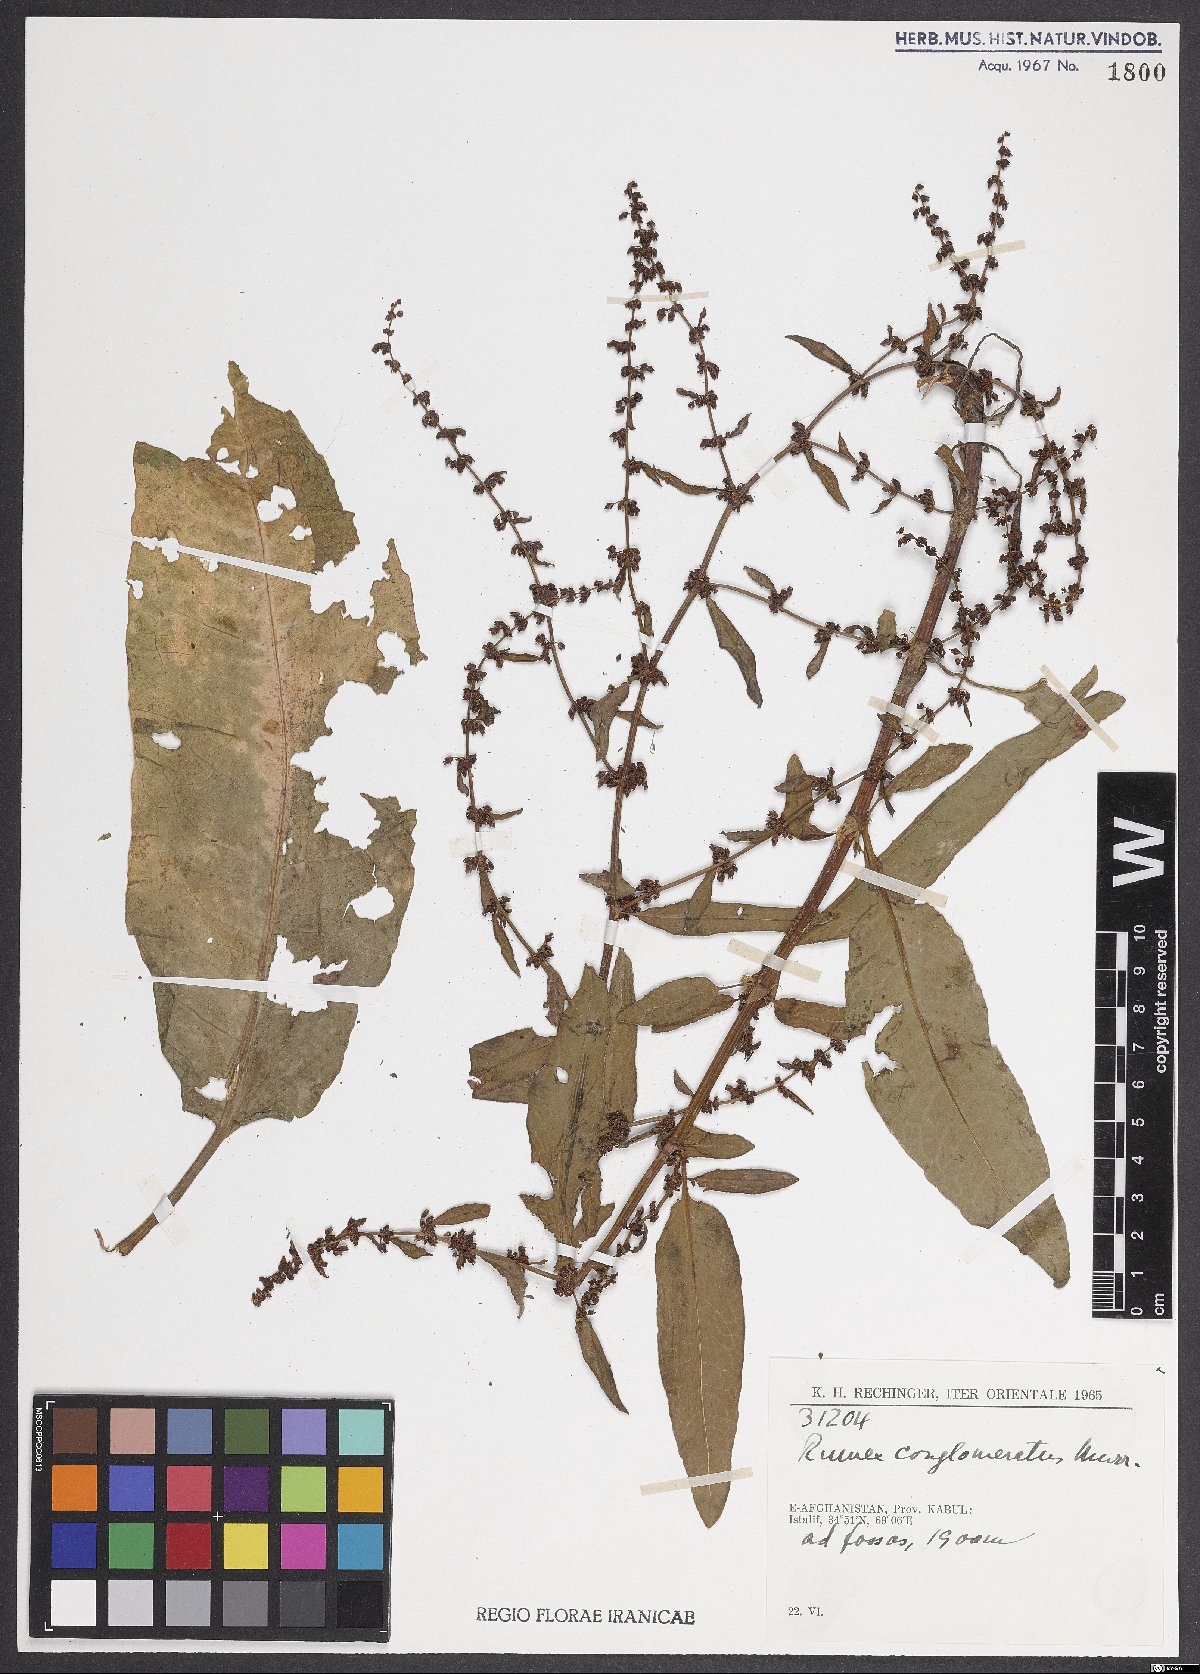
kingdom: Plantae
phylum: Tracheophyta
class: Magnoliopsida
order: Caryophyllales
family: Polygonaceae
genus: Rumex
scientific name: Rumex conglomeratus
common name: Clustered dock
